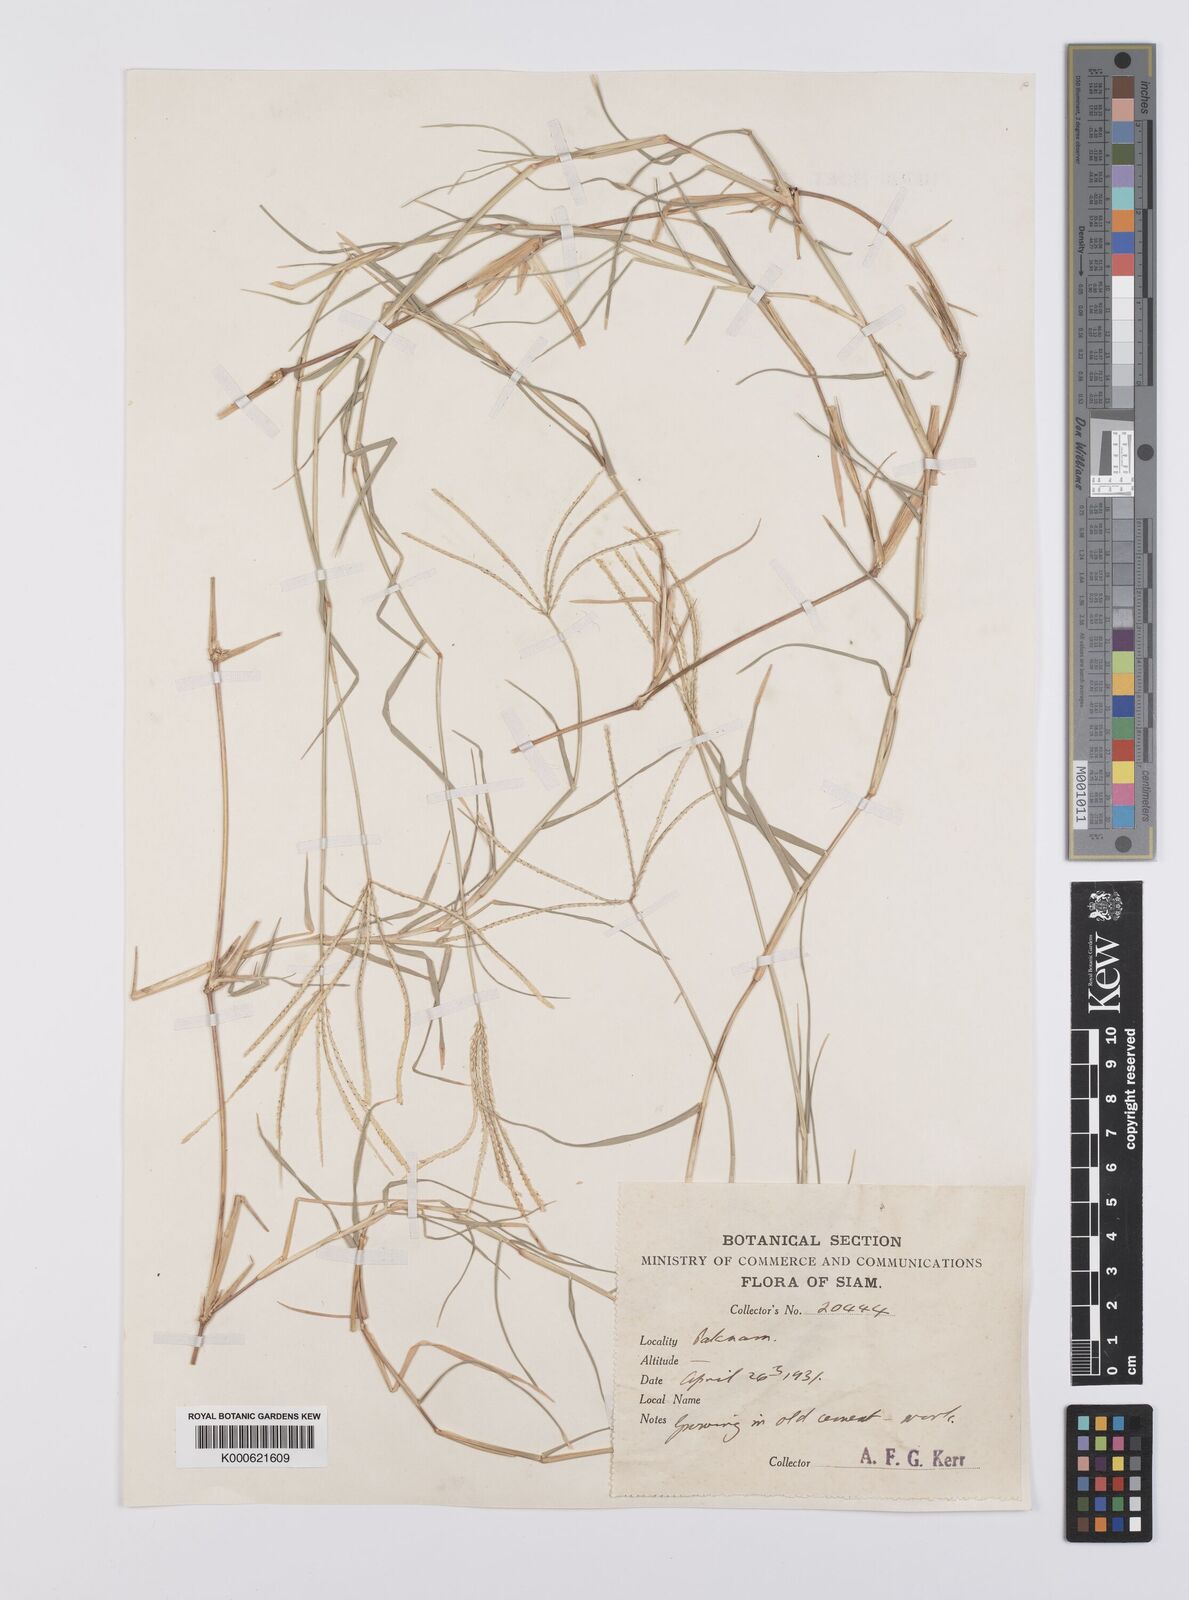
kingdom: Plantae
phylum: Tracheophyta
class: Liliopsida
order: Poales
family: Poaceae
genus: Cynodon
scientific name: Cynodon dactylon
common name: Bermuda grass
